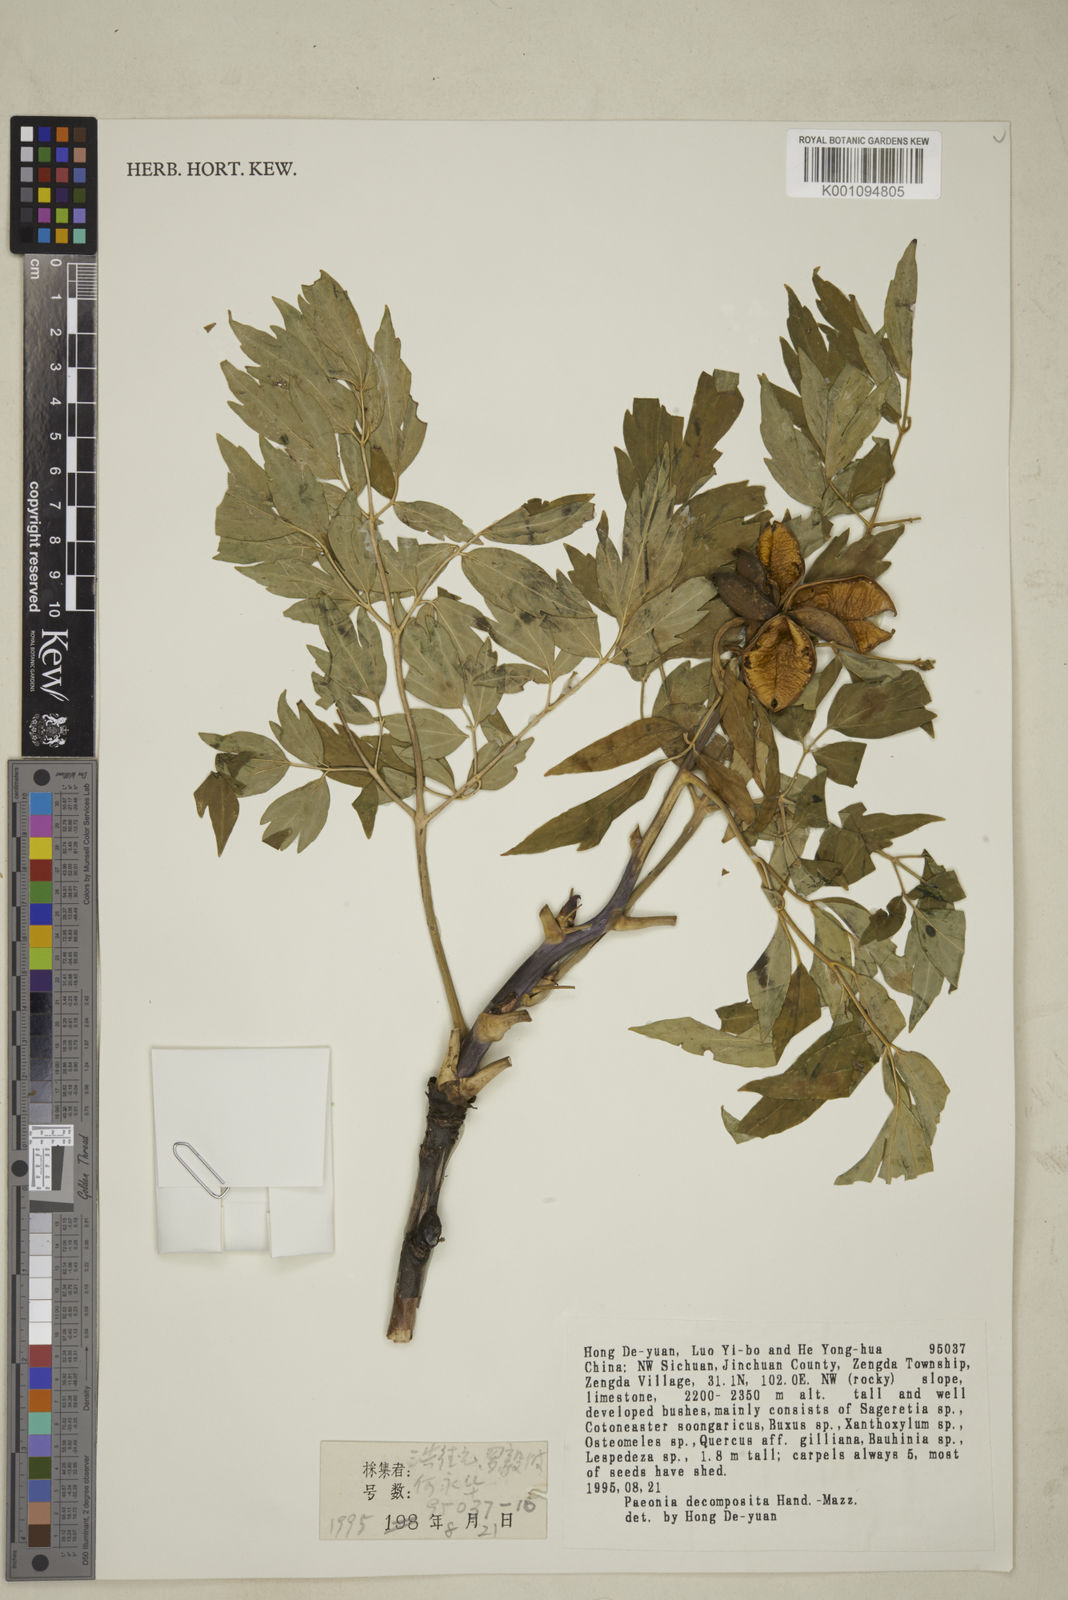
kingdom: Plantae
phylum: Tracheophyta
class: Magnoliopsida
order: Saxifragales
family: Paeoniaceae
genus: Paeonia
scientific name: Paeonia suffruticosa
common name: Moutan peony
